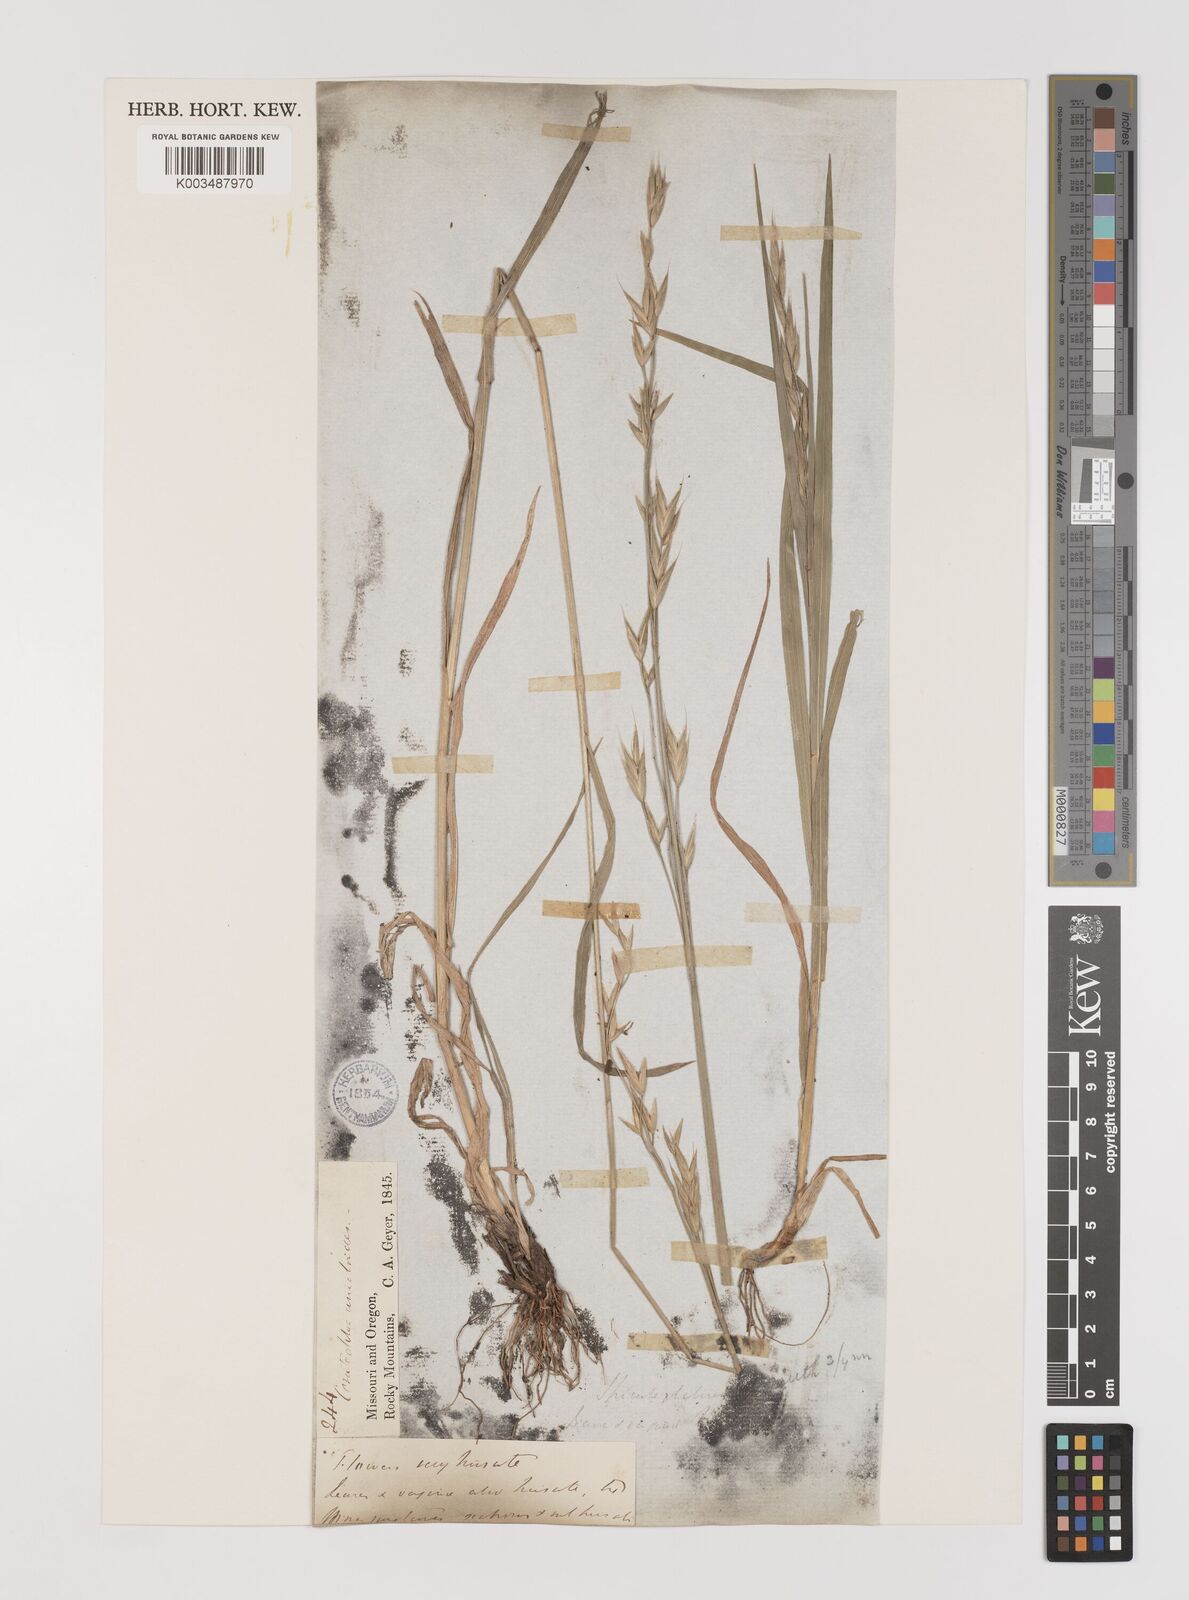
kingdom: Plantae
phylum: Tracheophyta
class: Liliopsida
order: Poales
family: Poaceae
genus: Bromus
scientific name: Bromus marginatus
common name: Western brome
